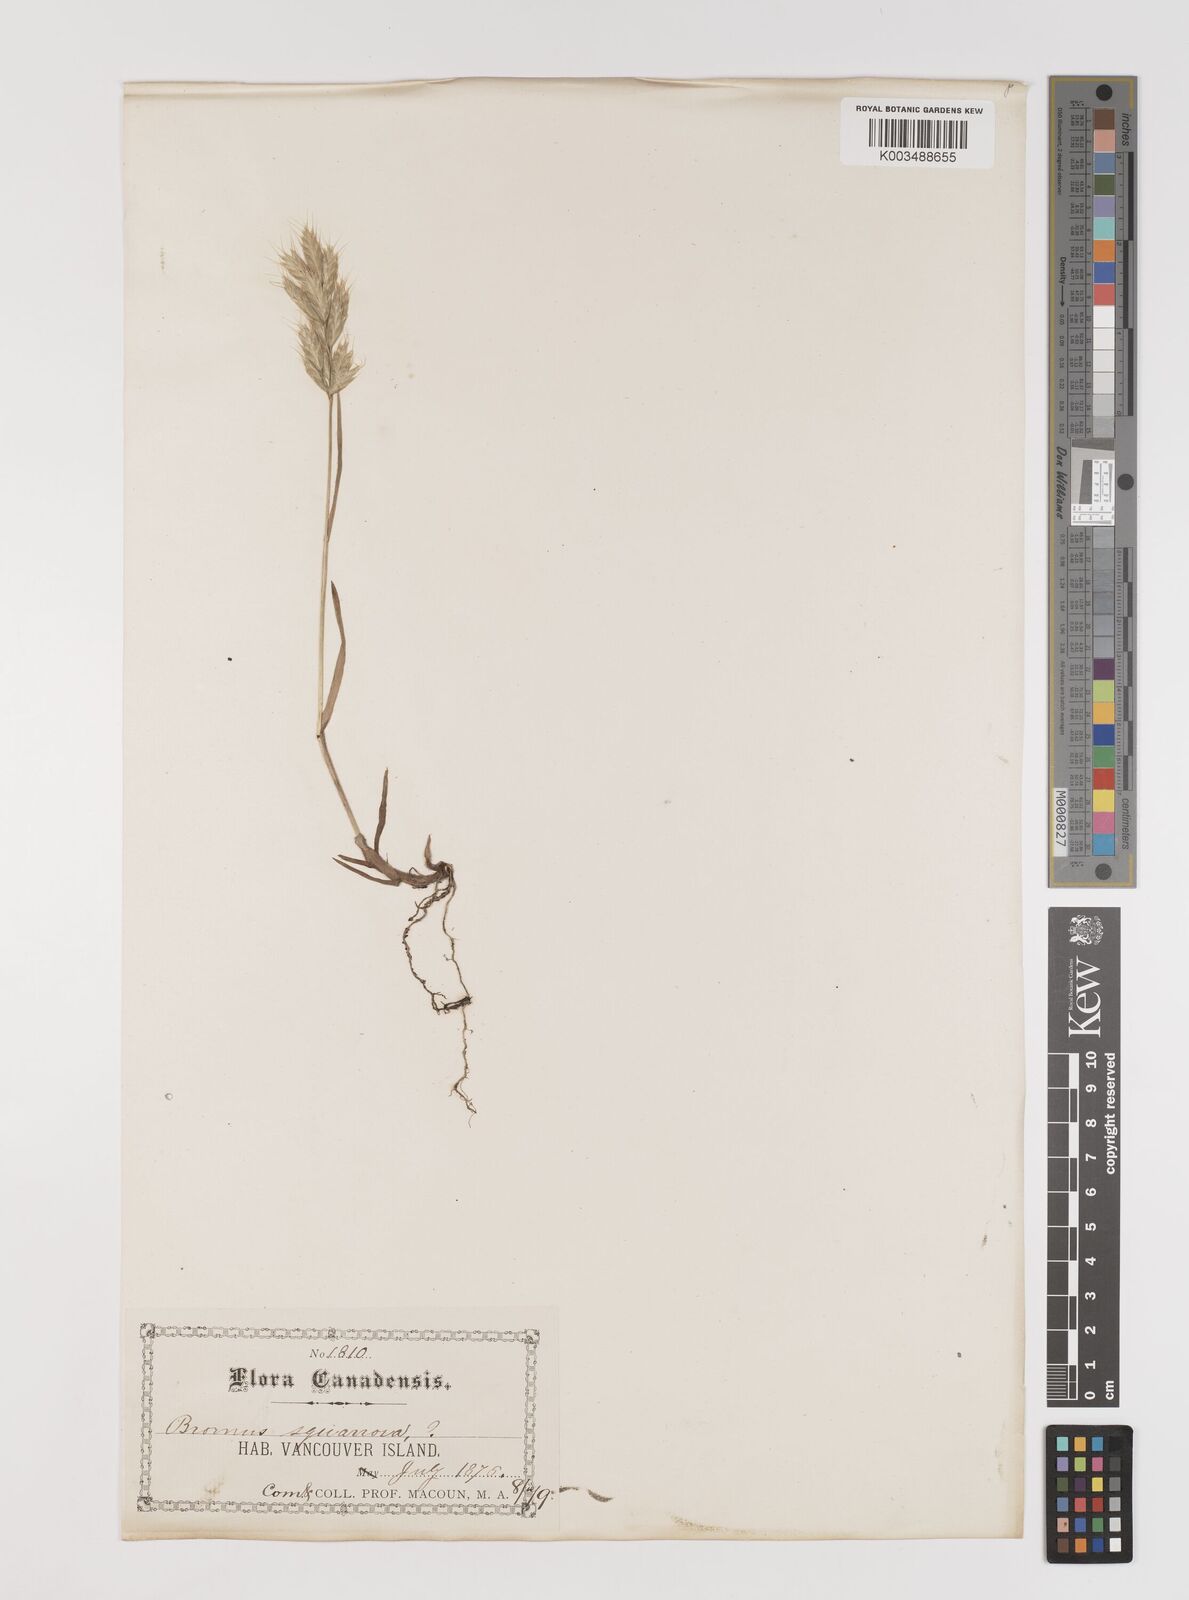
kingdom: Plantae
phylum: Tracheophyta
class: Liliopsida
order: Poales
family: Poaceae
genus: Bromus
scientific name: Bromus hordeaceus
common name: Soft brome
